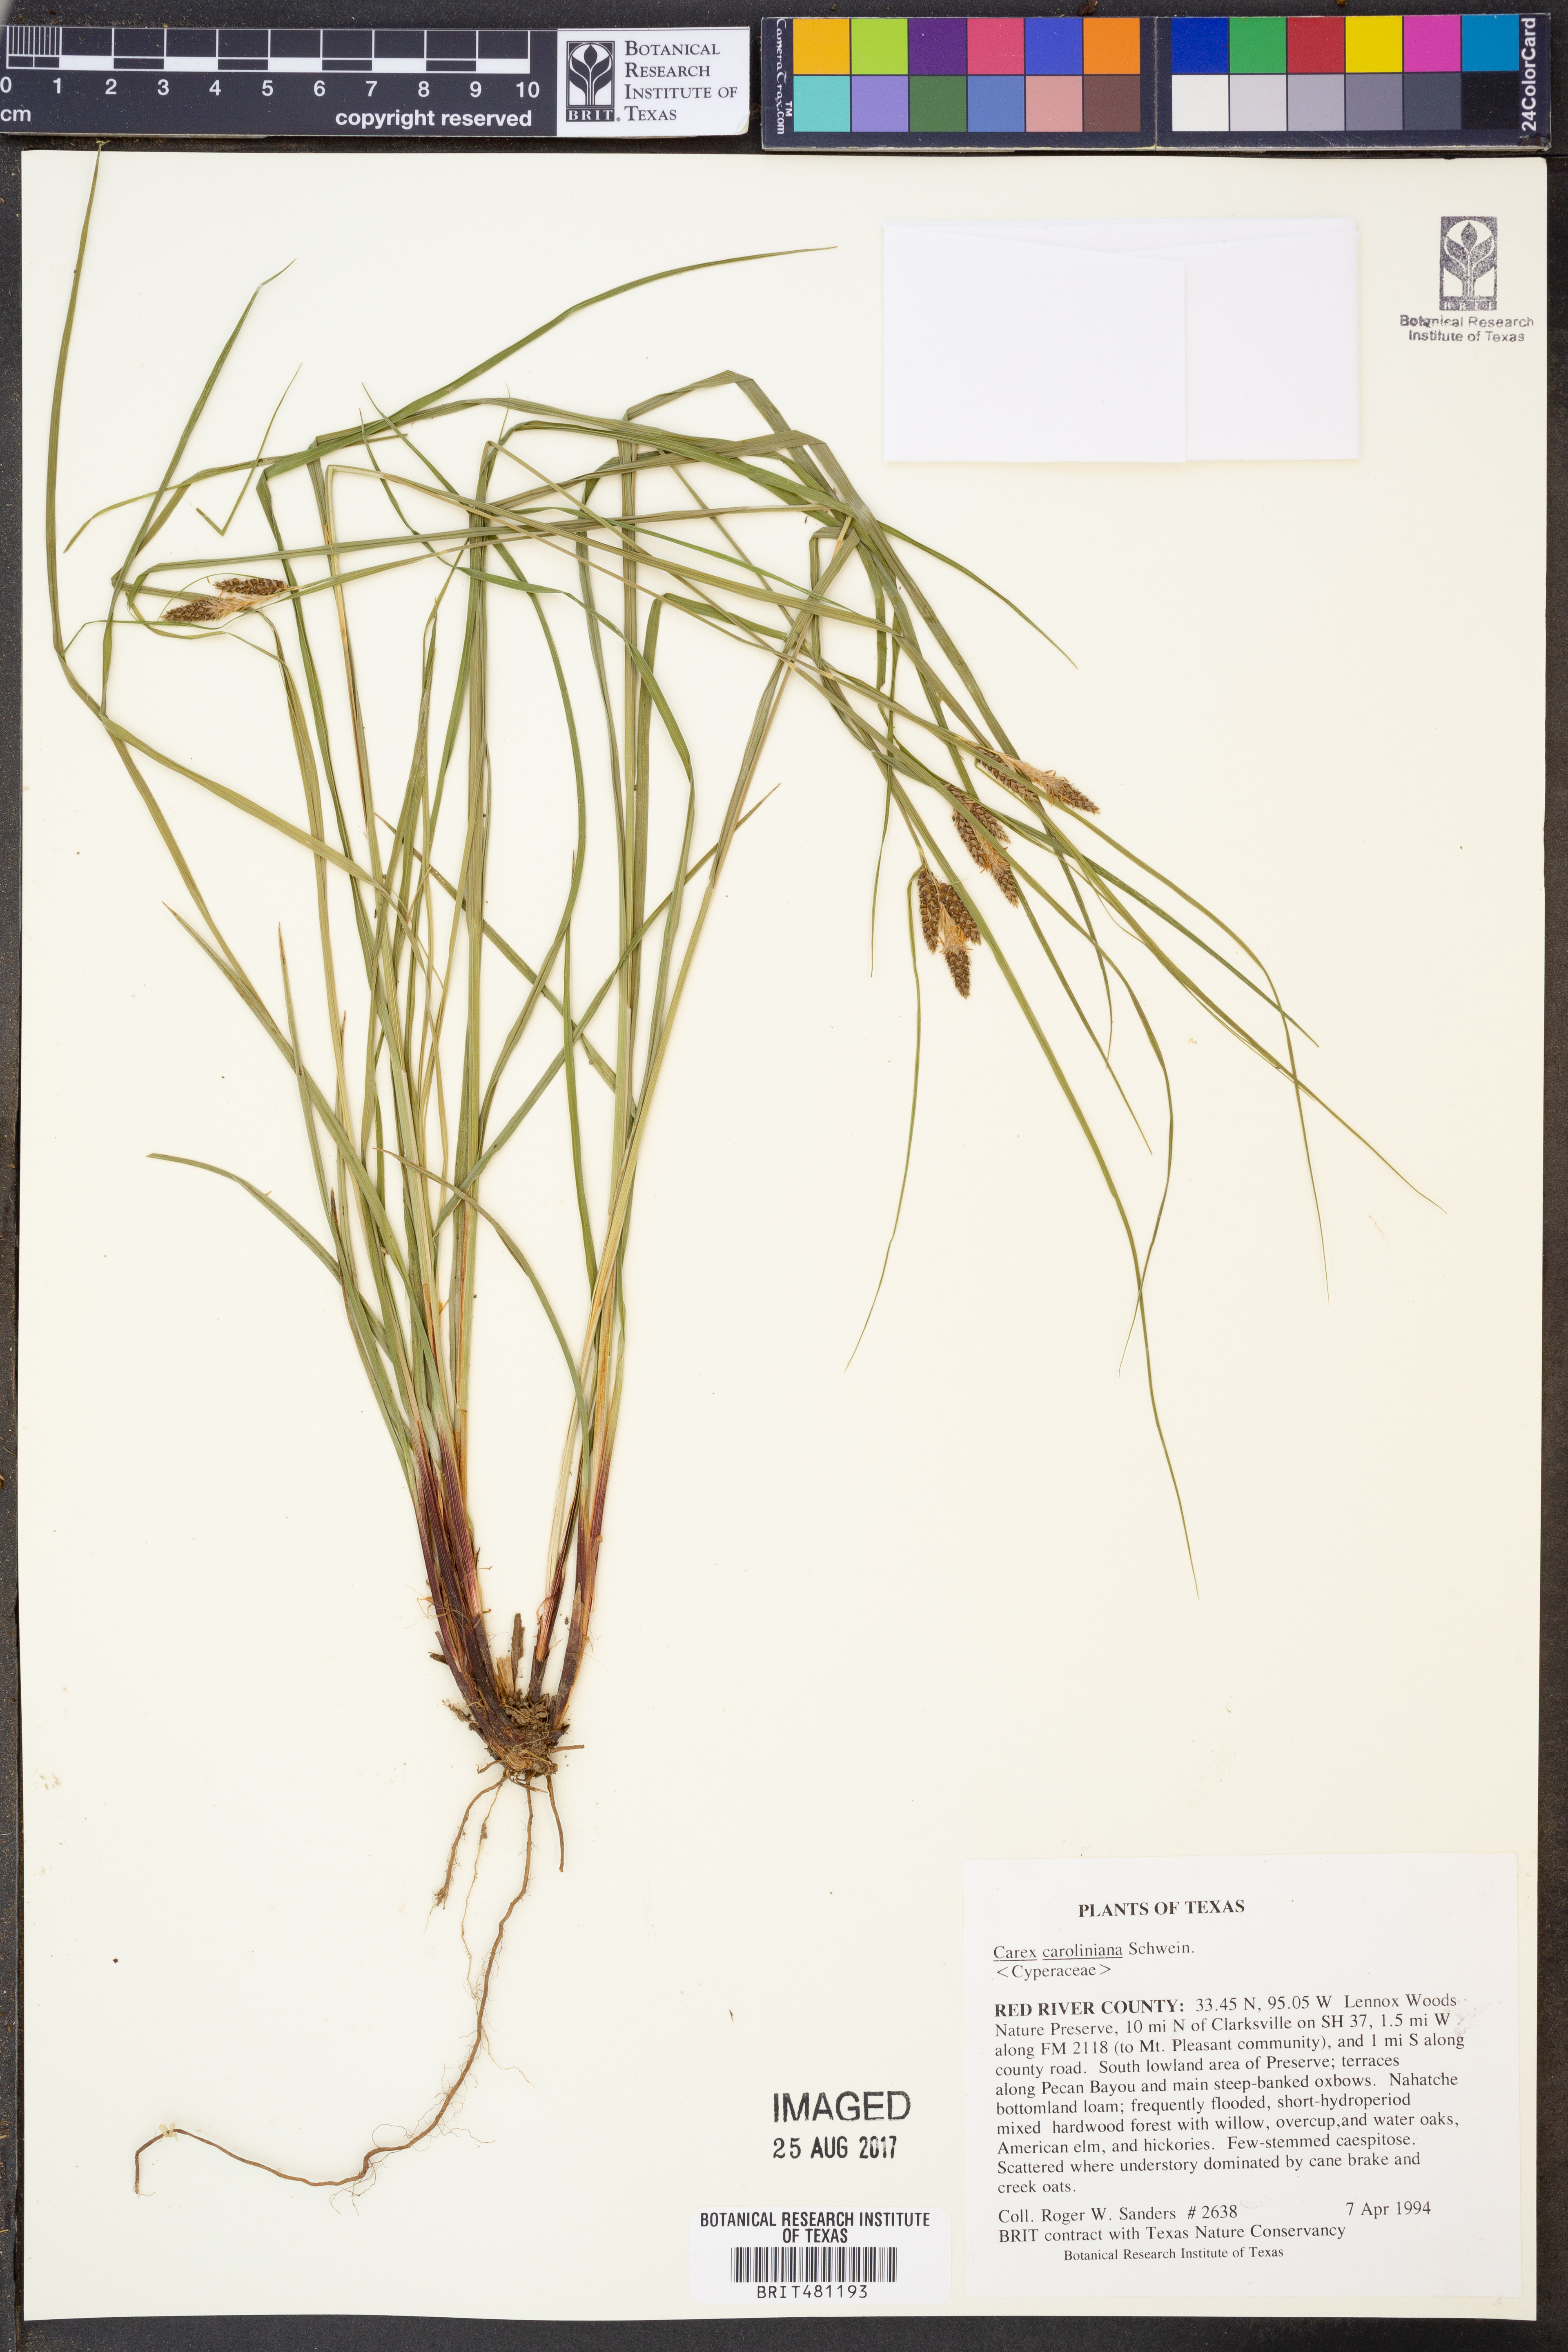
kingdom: Plantae
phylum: Tracheophyta
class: Liliopsida
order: Poales
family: Cyperaceae
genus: Carex
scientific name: Carex caroliniana
